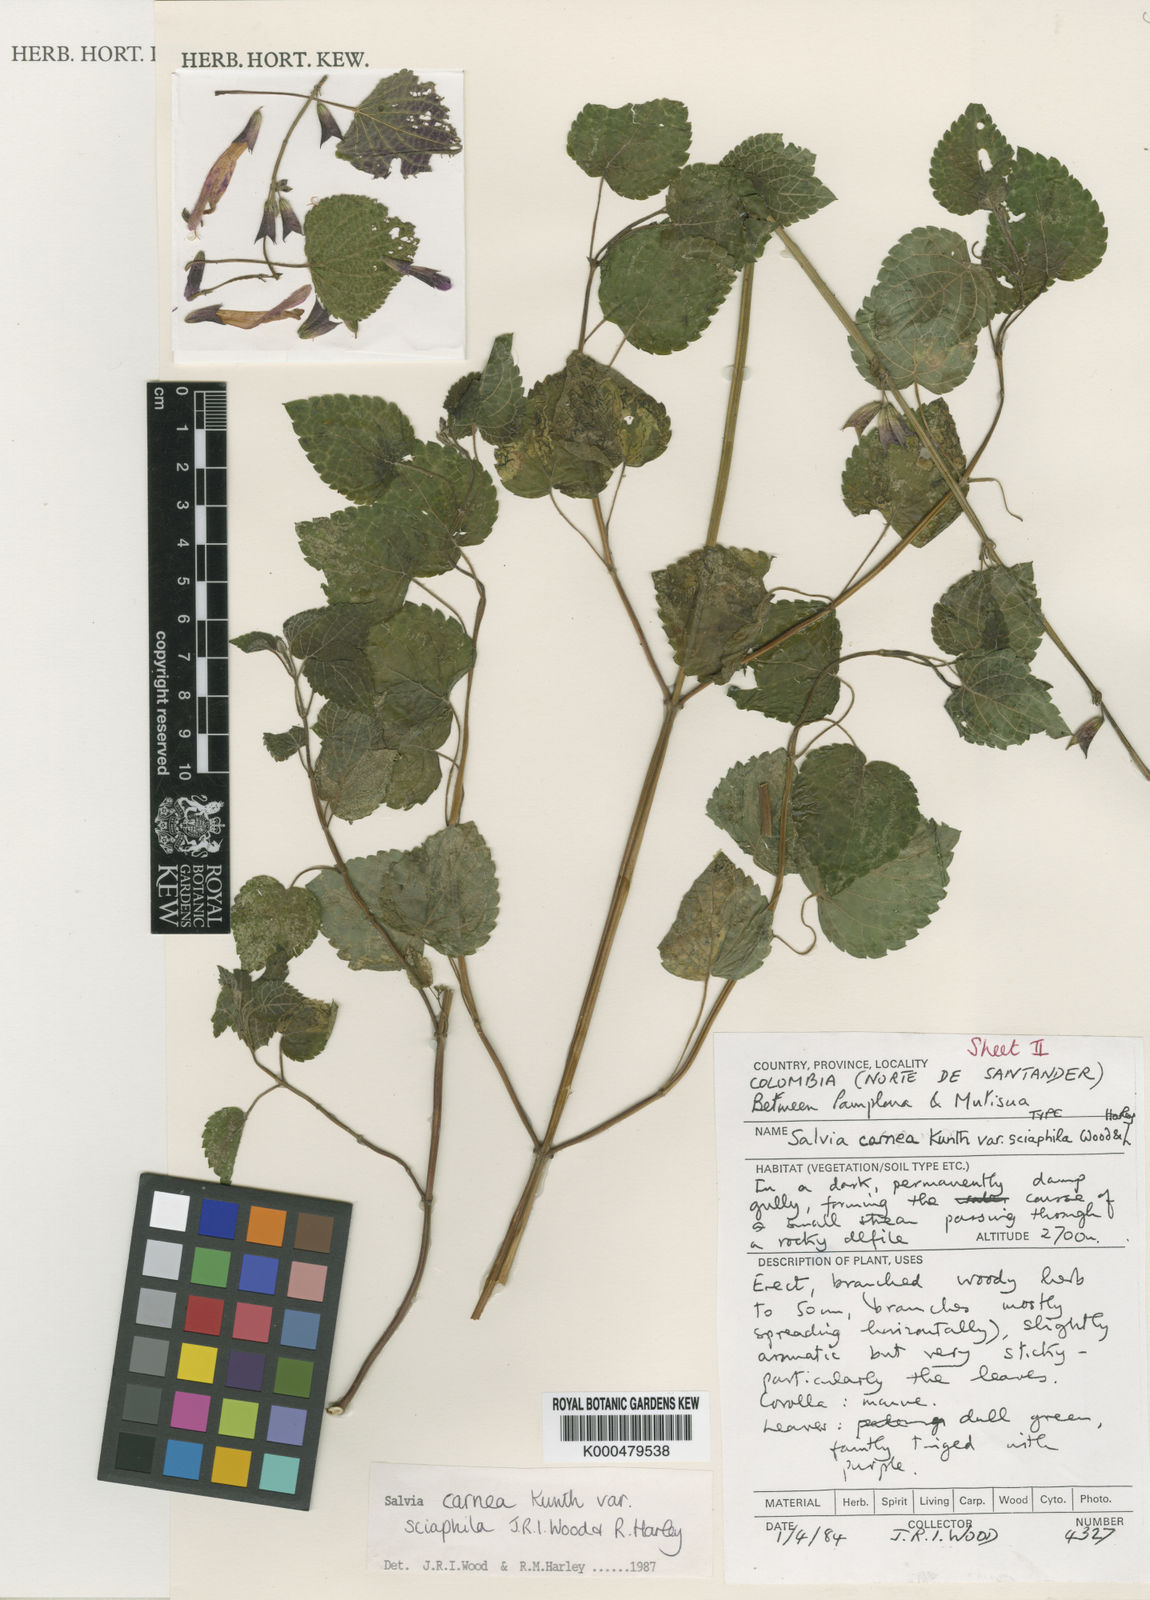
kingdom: Plantae
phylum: Tracheophyta
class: Magnoliopsida
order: Lamiales
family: Lamiaceae
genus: Salvia
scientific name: Salvia sciaphila
